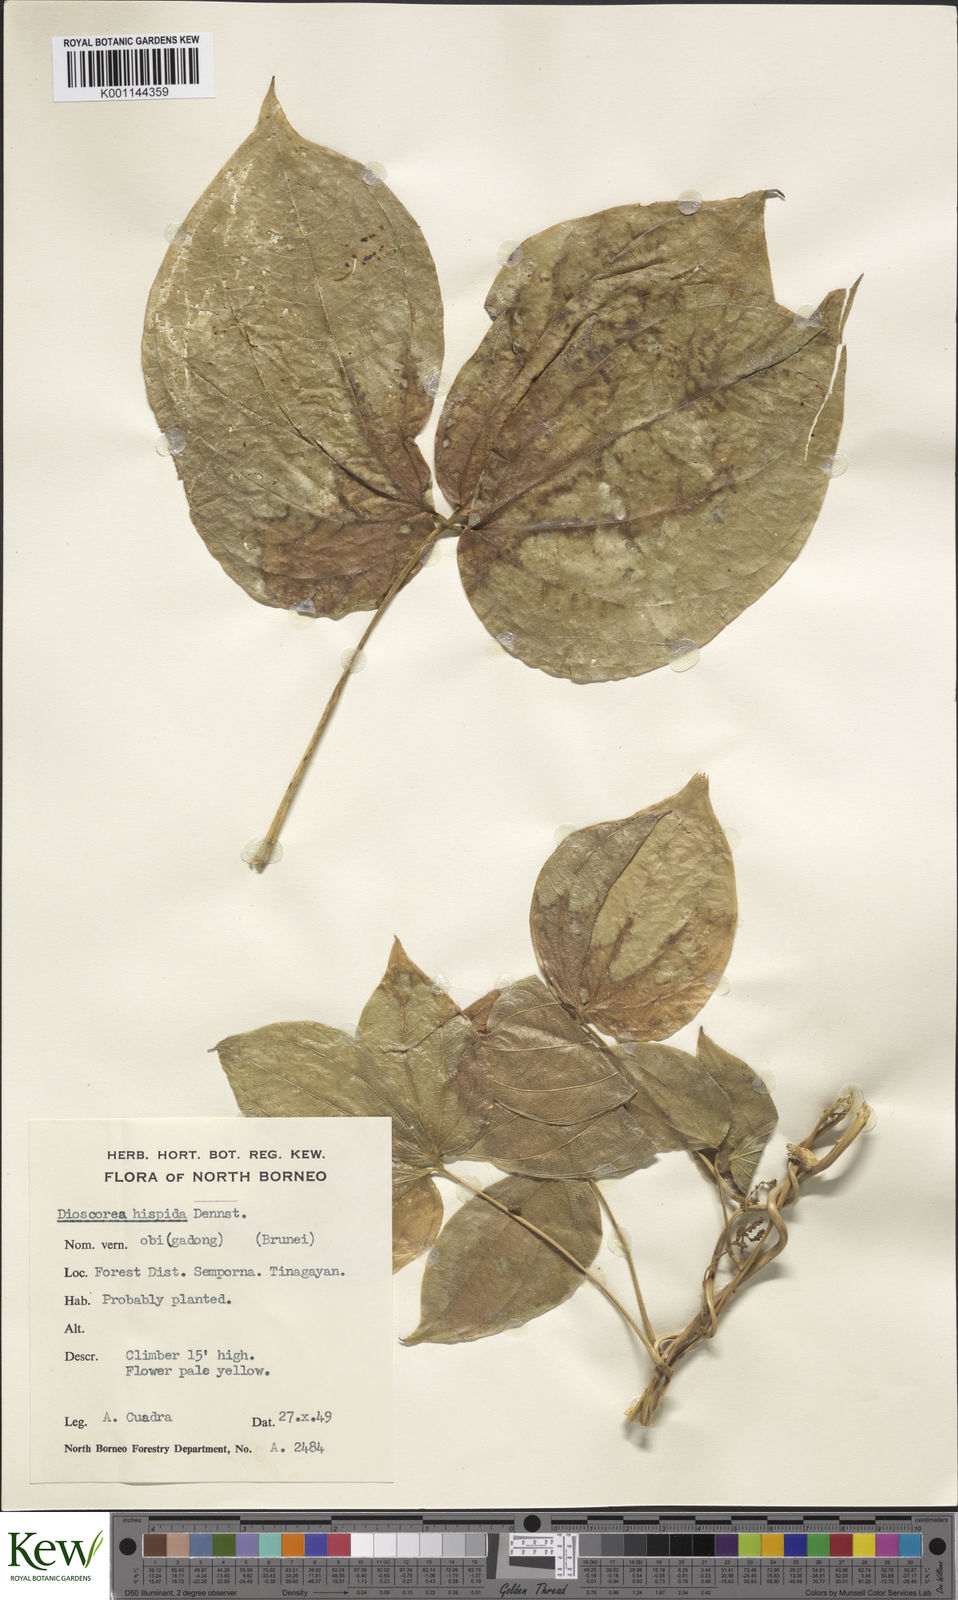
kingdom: Plantae
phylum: Tracheophyta
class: Liliopsida
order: Dioscoreales
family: Dioscoreaceae
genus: Dioscorea
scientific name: Dioscorea hispida
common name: Asiatic bitter yam
